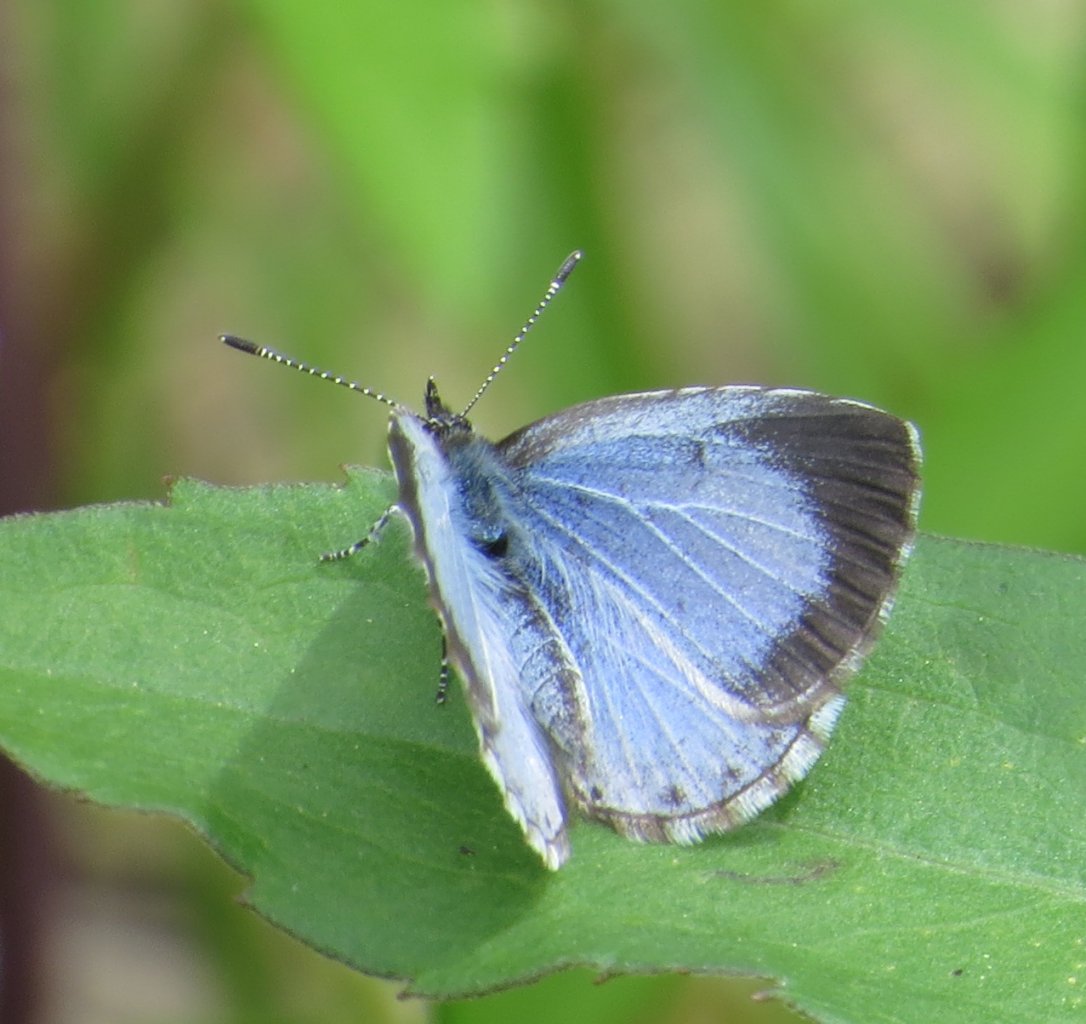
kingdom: Animalia
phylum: Arthropoda
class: Insecta
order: Lepidoptera
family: Lycaenidae
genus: Celastrina
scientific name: Celastrina
